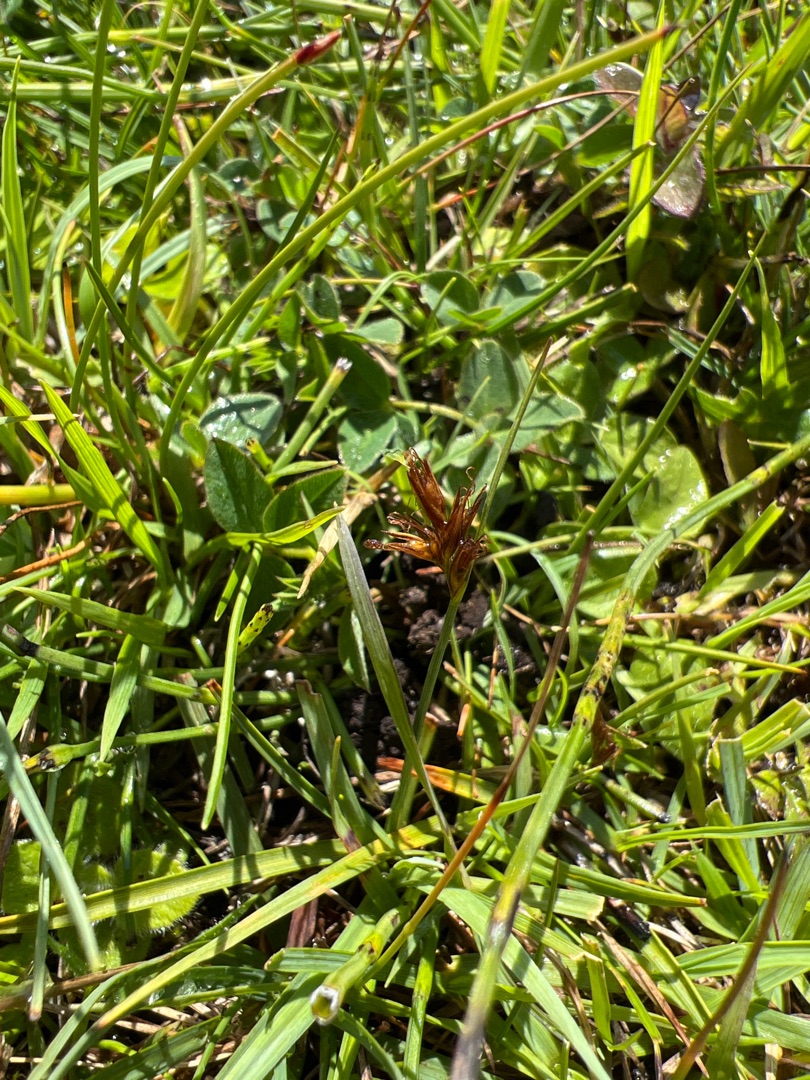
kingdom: Plantae
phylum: Tracheophyta
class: Liliopsida
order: Poales
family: Cyperaceae
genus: Blysmus
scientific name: Blysmus rufus
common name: Rødbrun kogleaks
